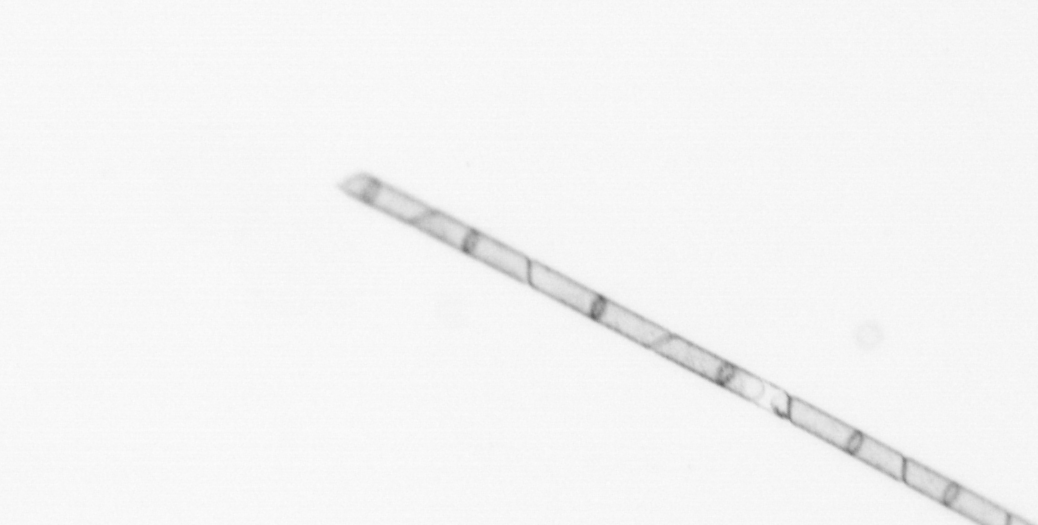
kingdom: Chromista
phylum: Ochrophyta
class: Bacillariophyceae
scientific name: Bacillariophyceae
